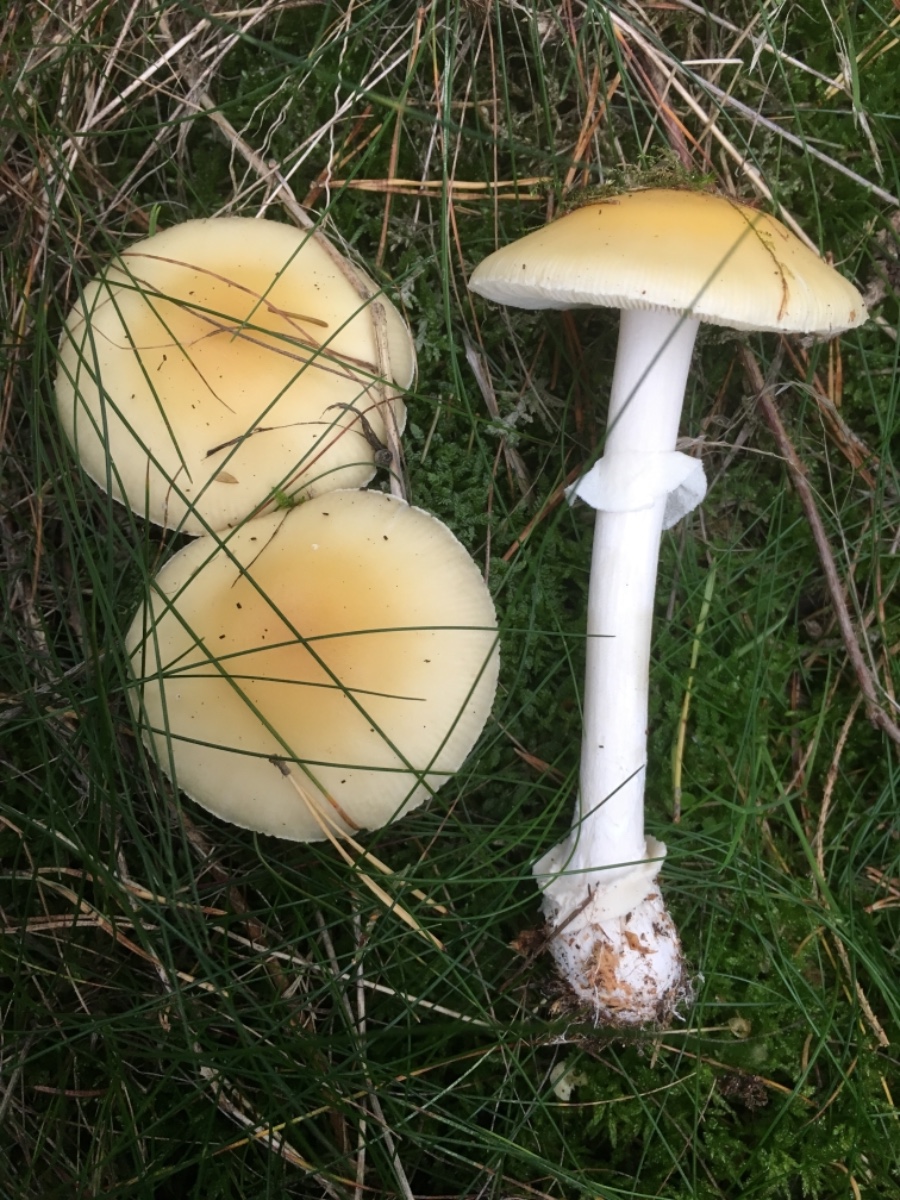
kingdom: Fungi
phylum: Basidiomycota
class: Agaricomycetes
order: Agaricales
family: Amanitaceae
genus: Amanita
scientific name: Amanita gemmata
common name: okkergul fluesvamp
